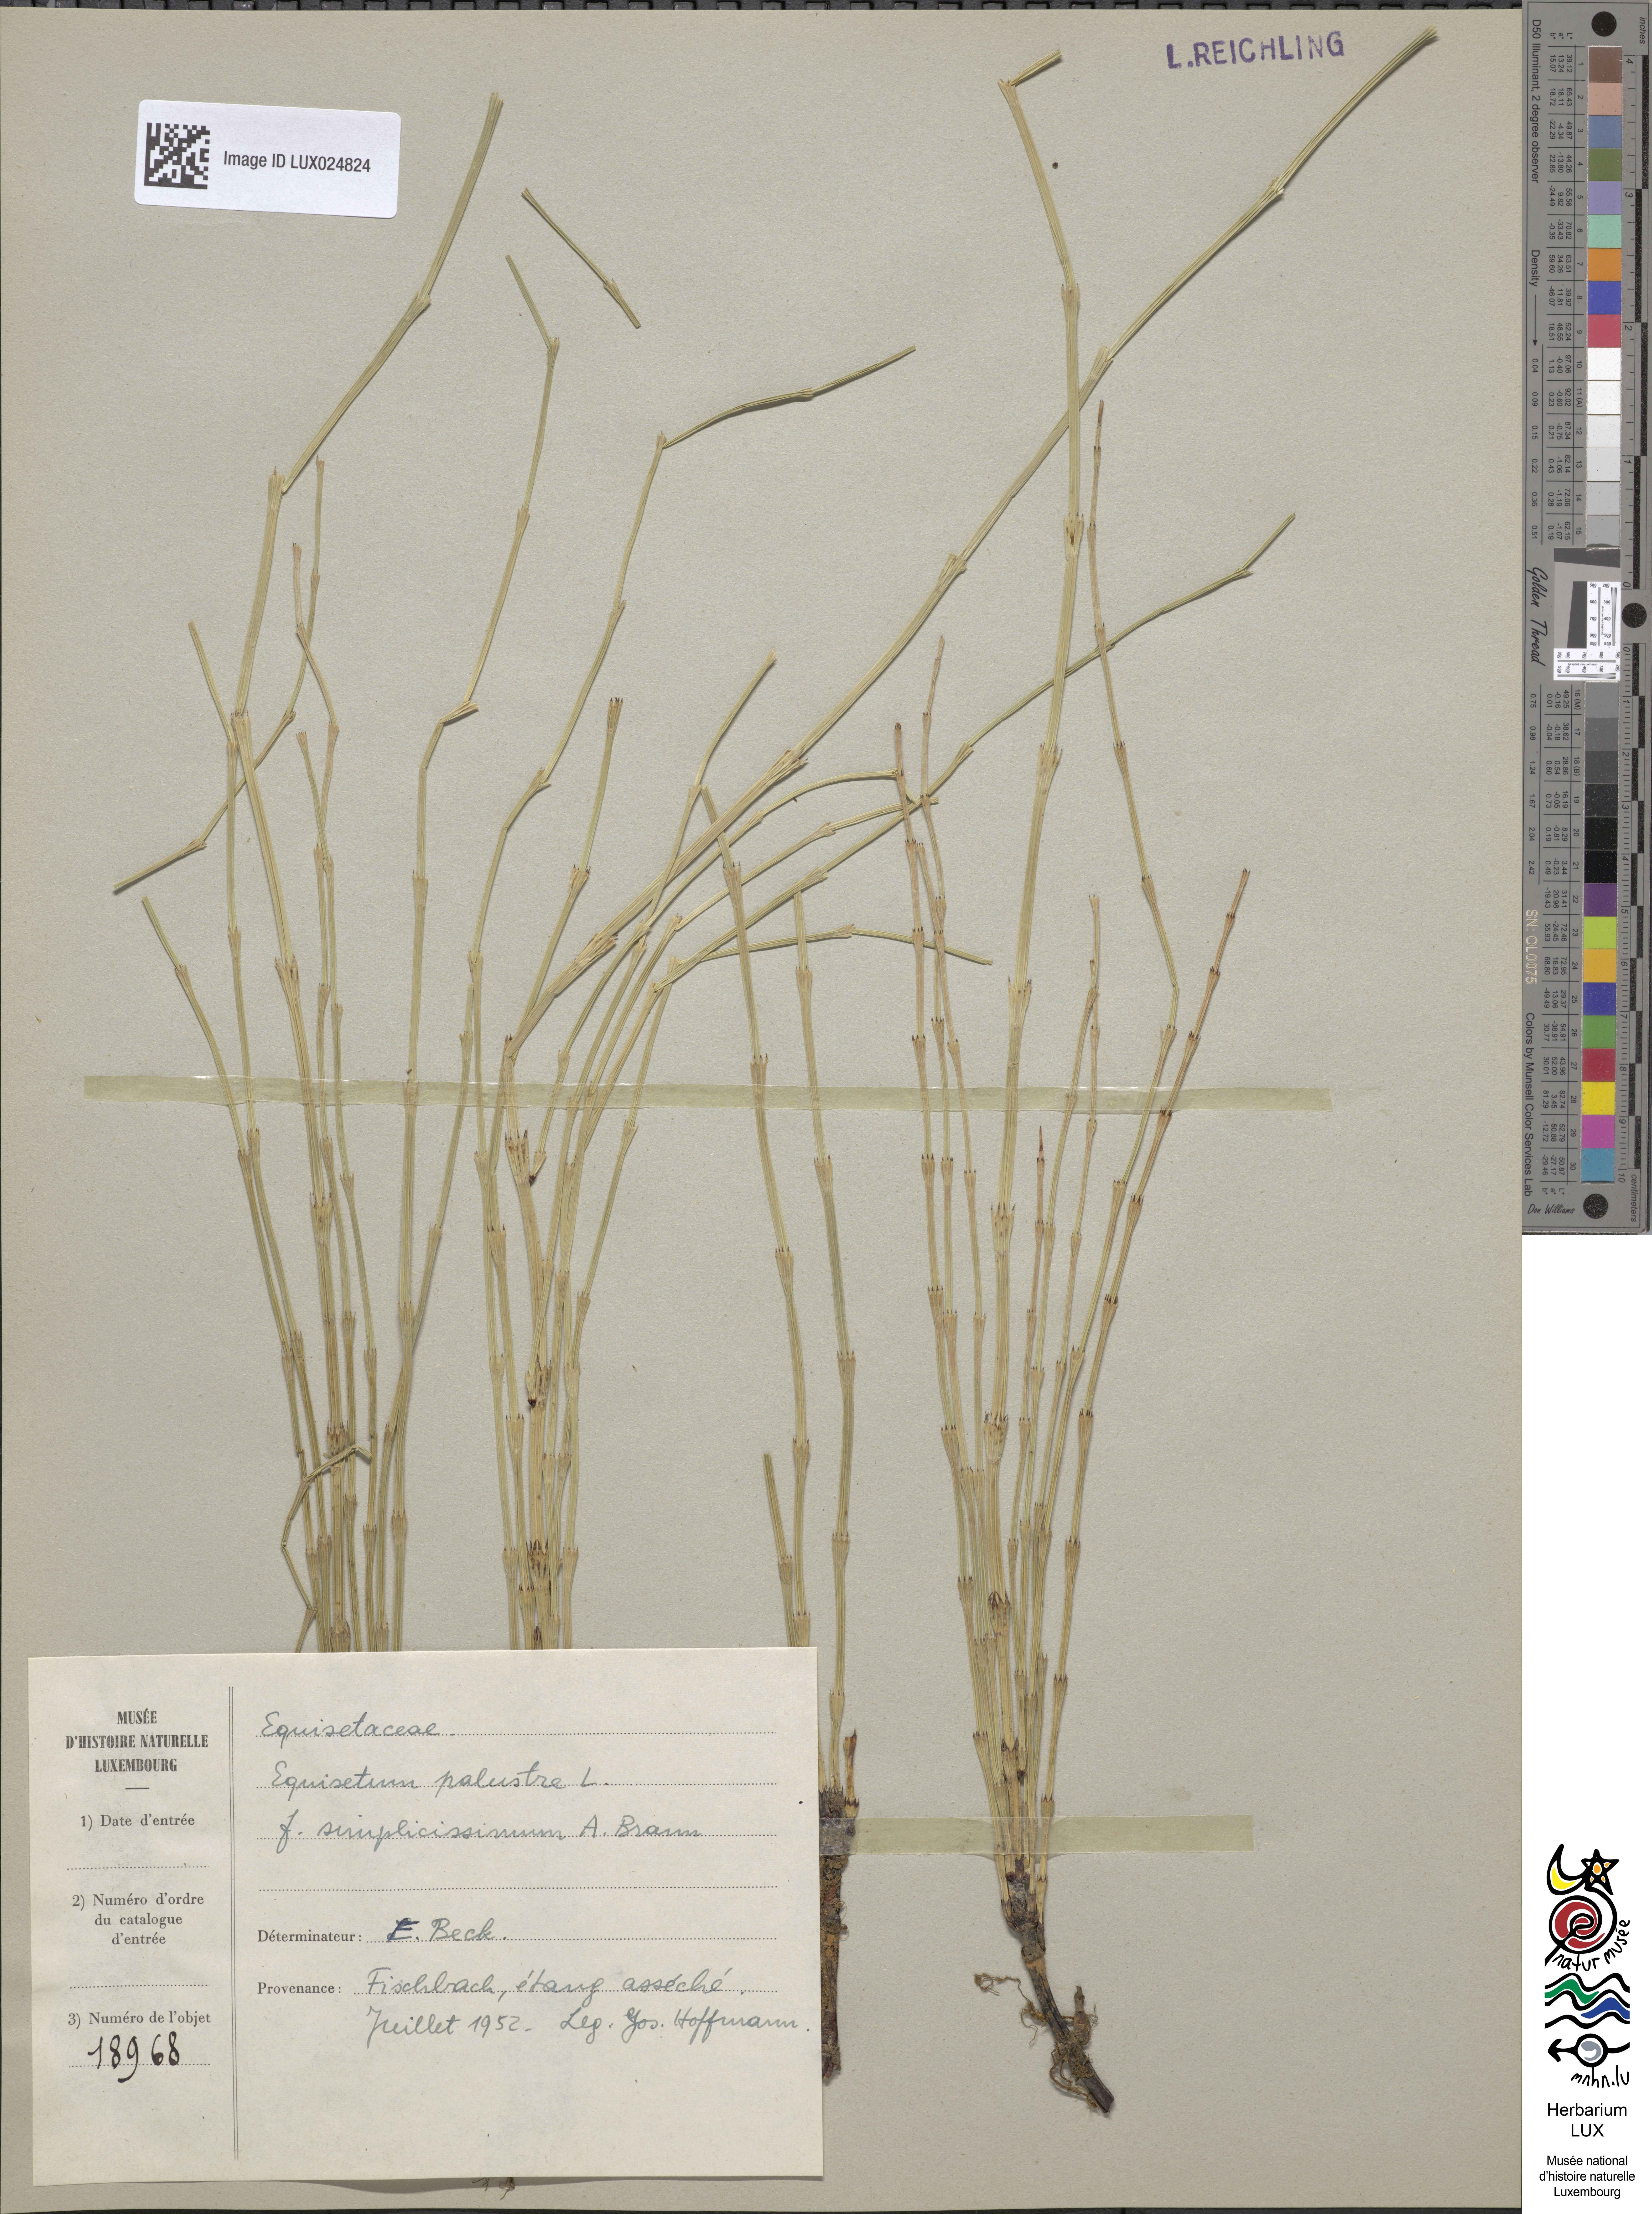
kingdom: Plantae
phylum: Tracheophyta
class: Polypodiopsida
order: Equisetales
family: Equisetaceae
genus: Equisetum
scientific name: Equisetum palustre
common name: Marsh horsetail
